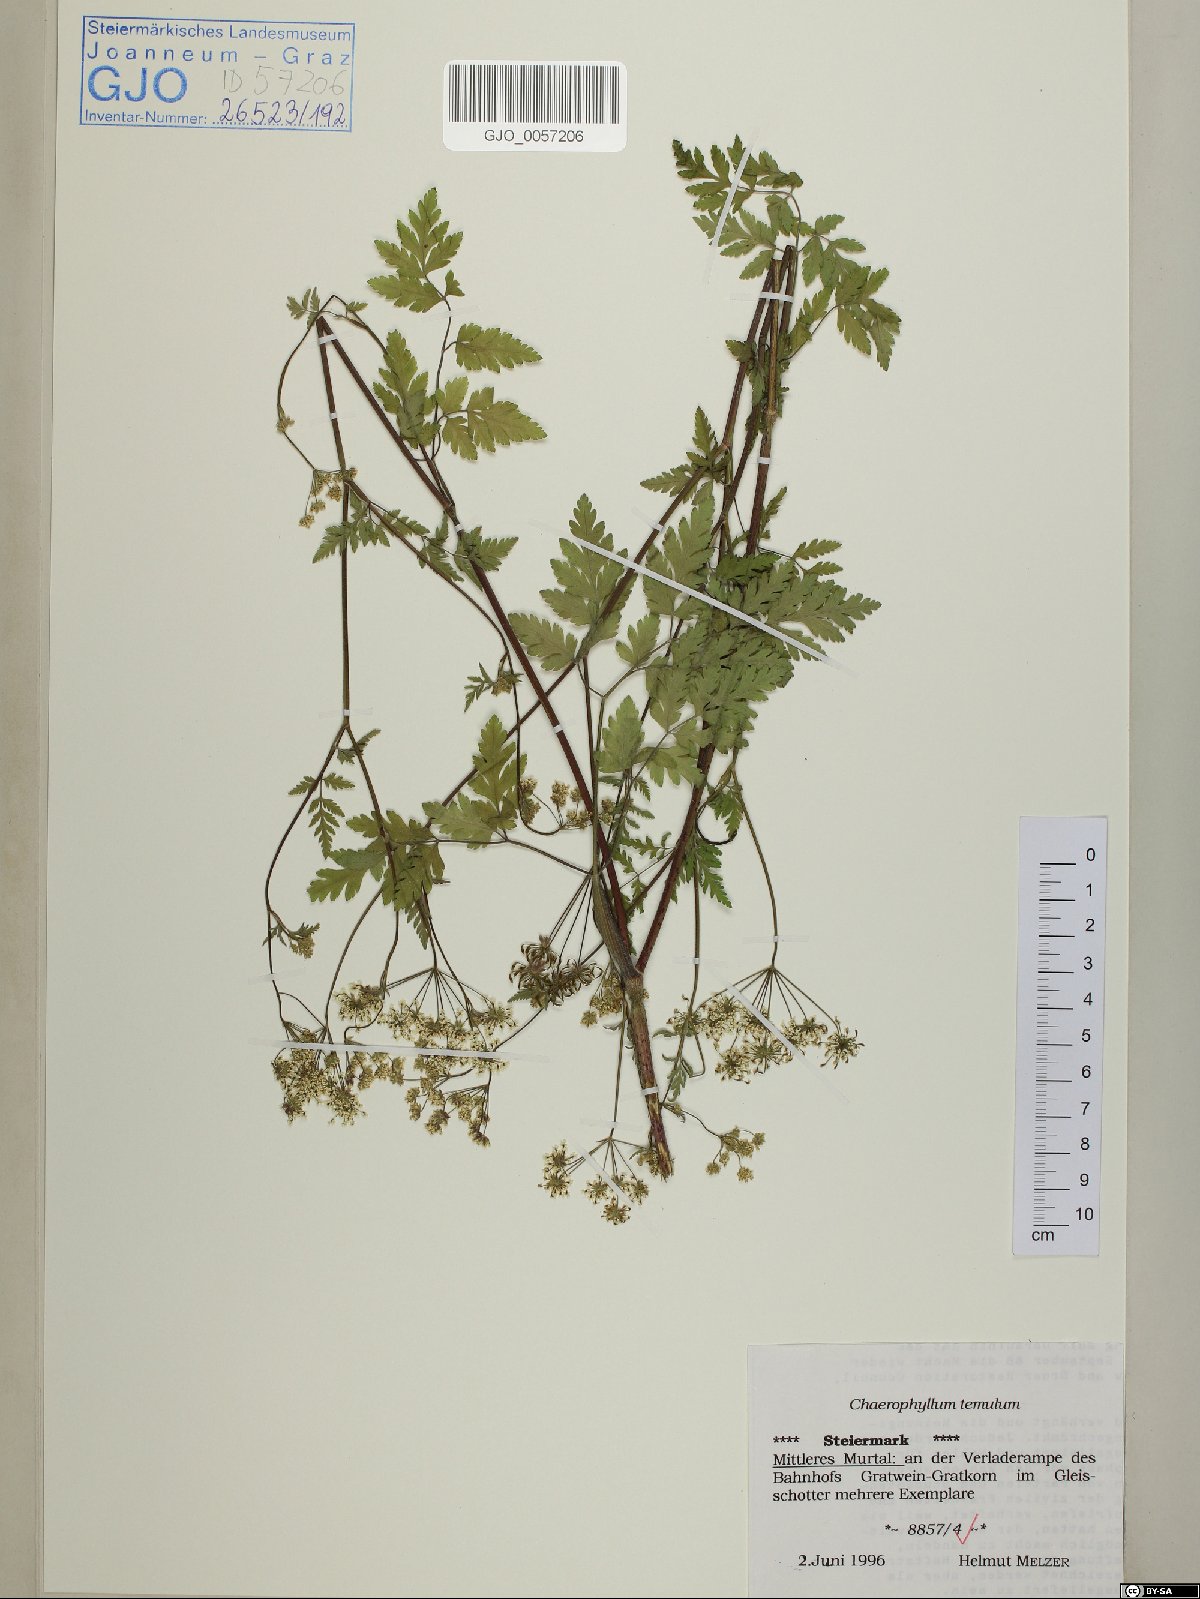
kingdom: Plantae
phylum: Tracheophyta
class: Magnoliopsida
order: Apiales
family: Apiaceae
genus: Chaerophyllum
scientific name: Chaerophyllum temulum
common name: Rough chervil
